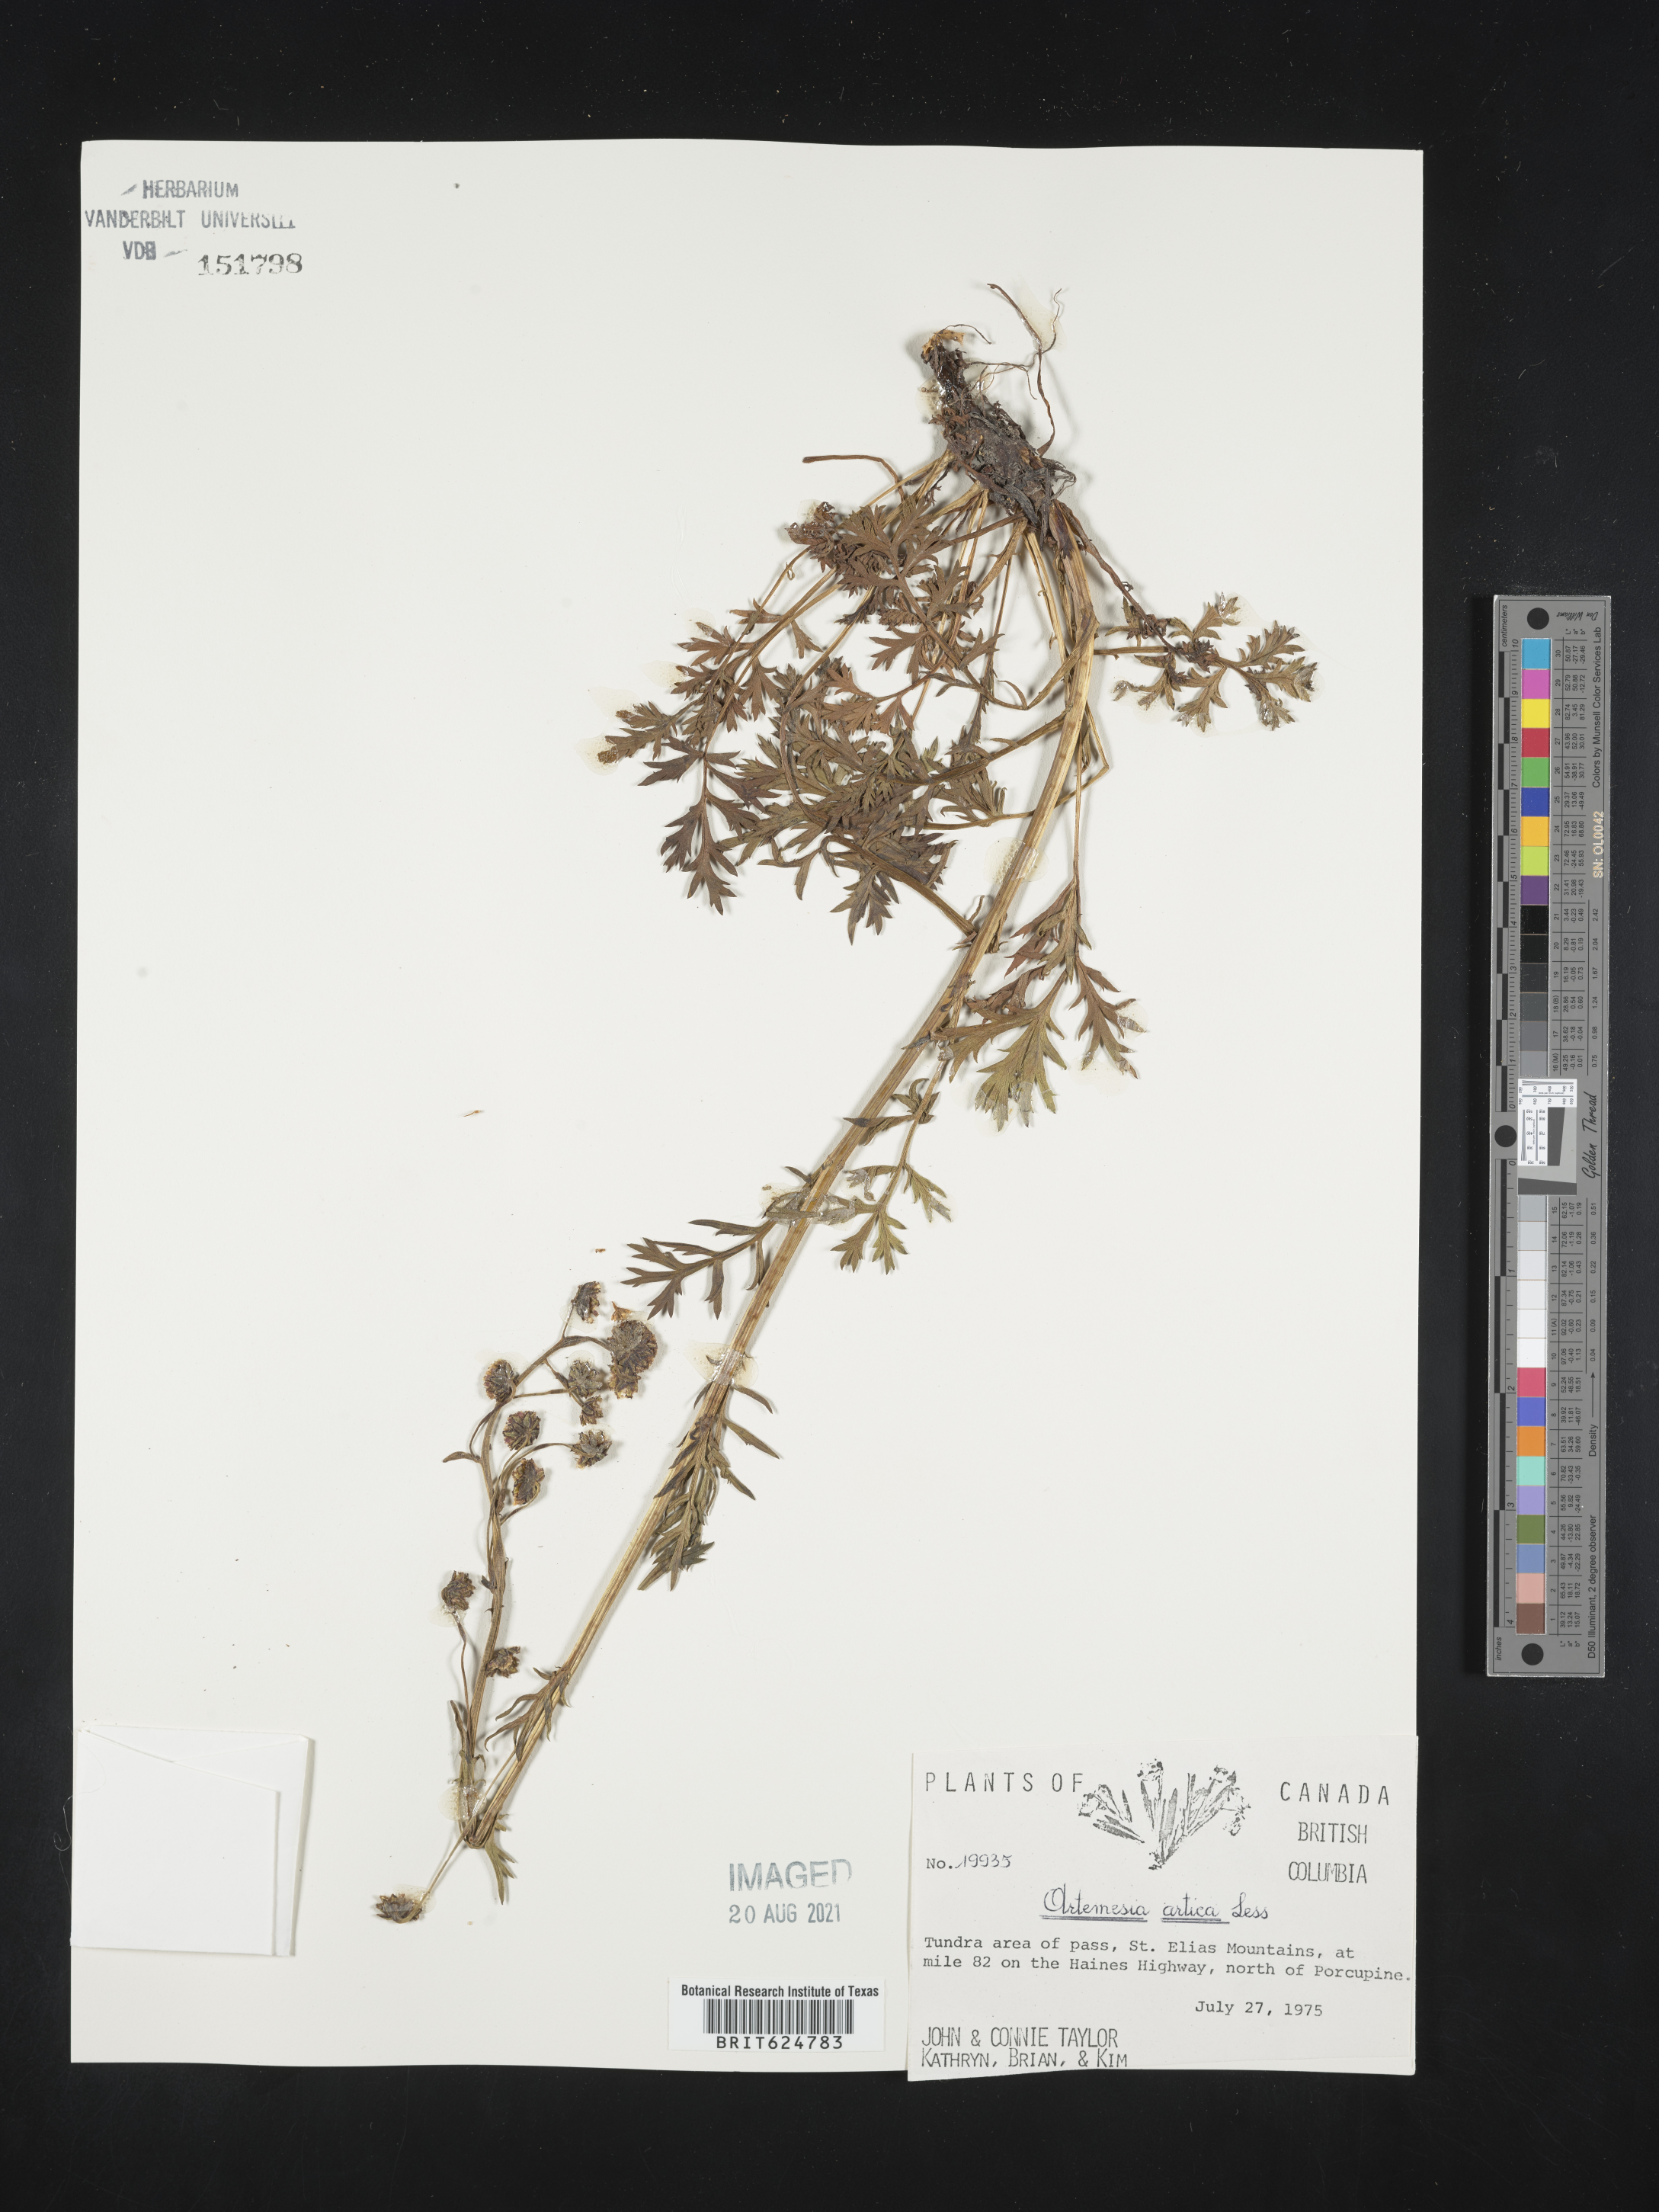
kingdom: Plantae
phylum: Tracheophyta
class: Magnoliopsida
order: Asterales
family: Asteraceae
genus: Artemisia
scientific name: Artemisia norvegica
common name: Norwegian mugwort
